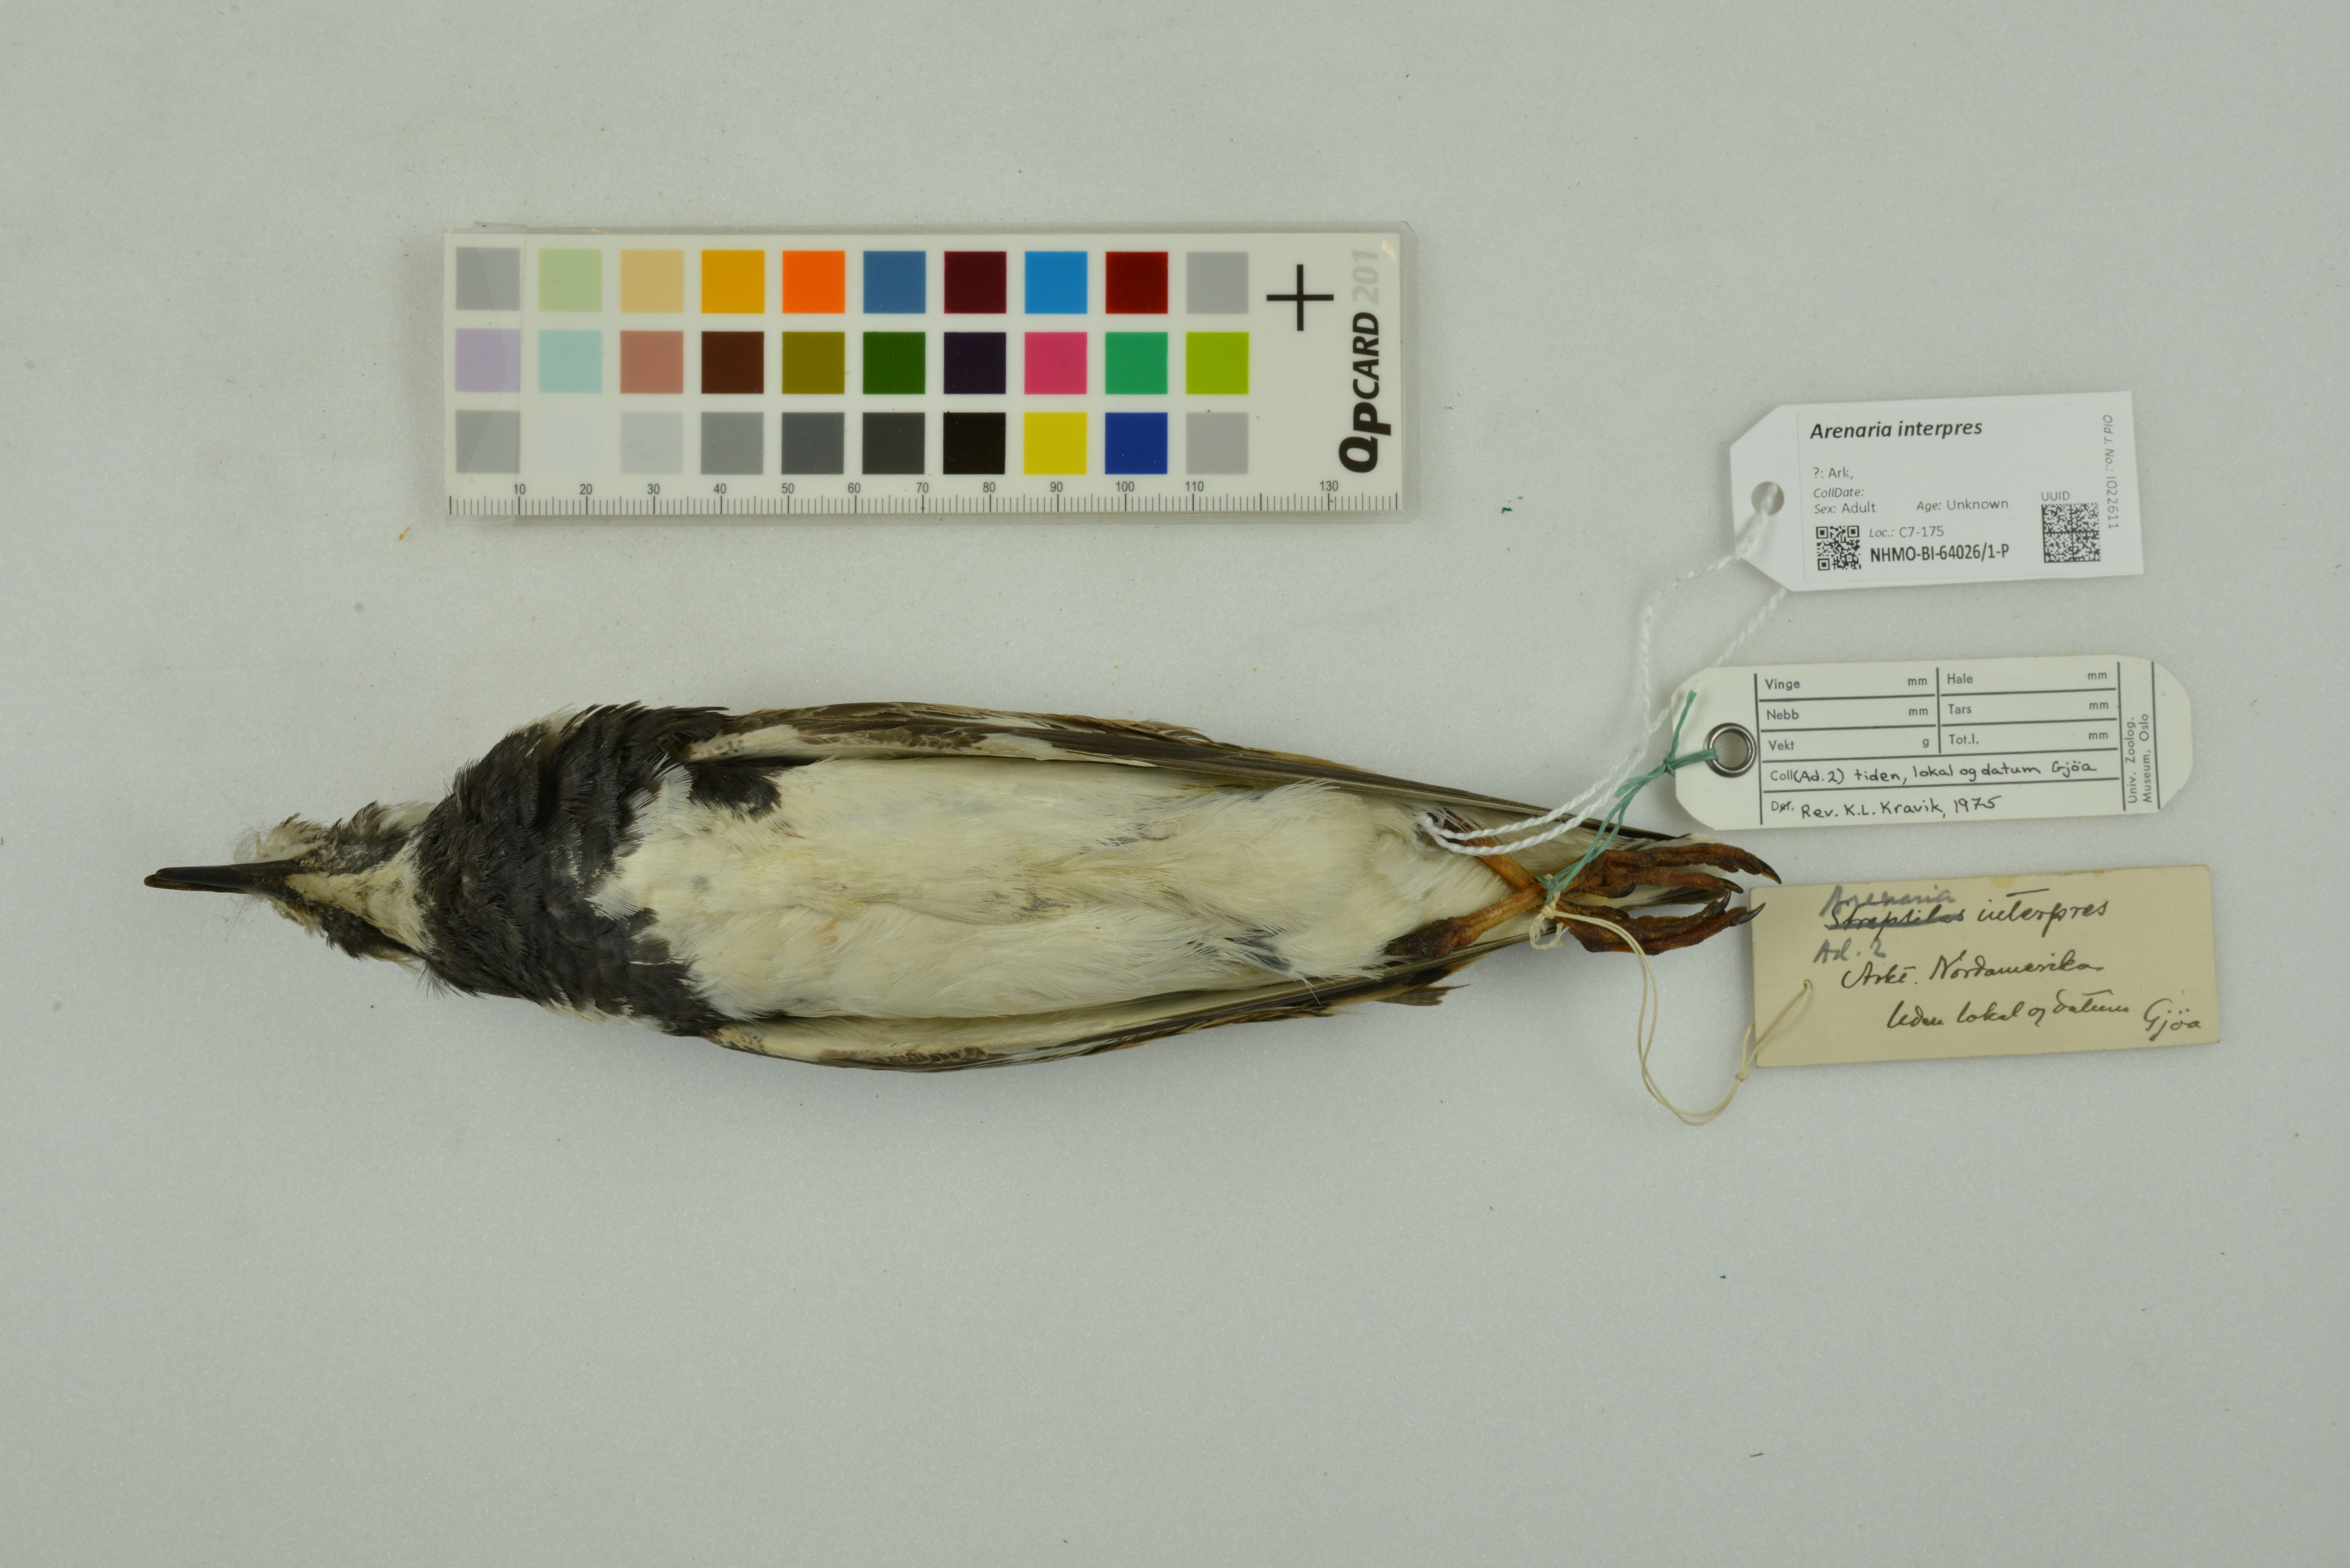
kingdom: Animalia
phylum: Chordata
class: Aves
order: Charadriiformes
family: Scolopacidae
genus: Arenaria
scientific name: Arenaria interpres
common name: Ruddy turnstone
